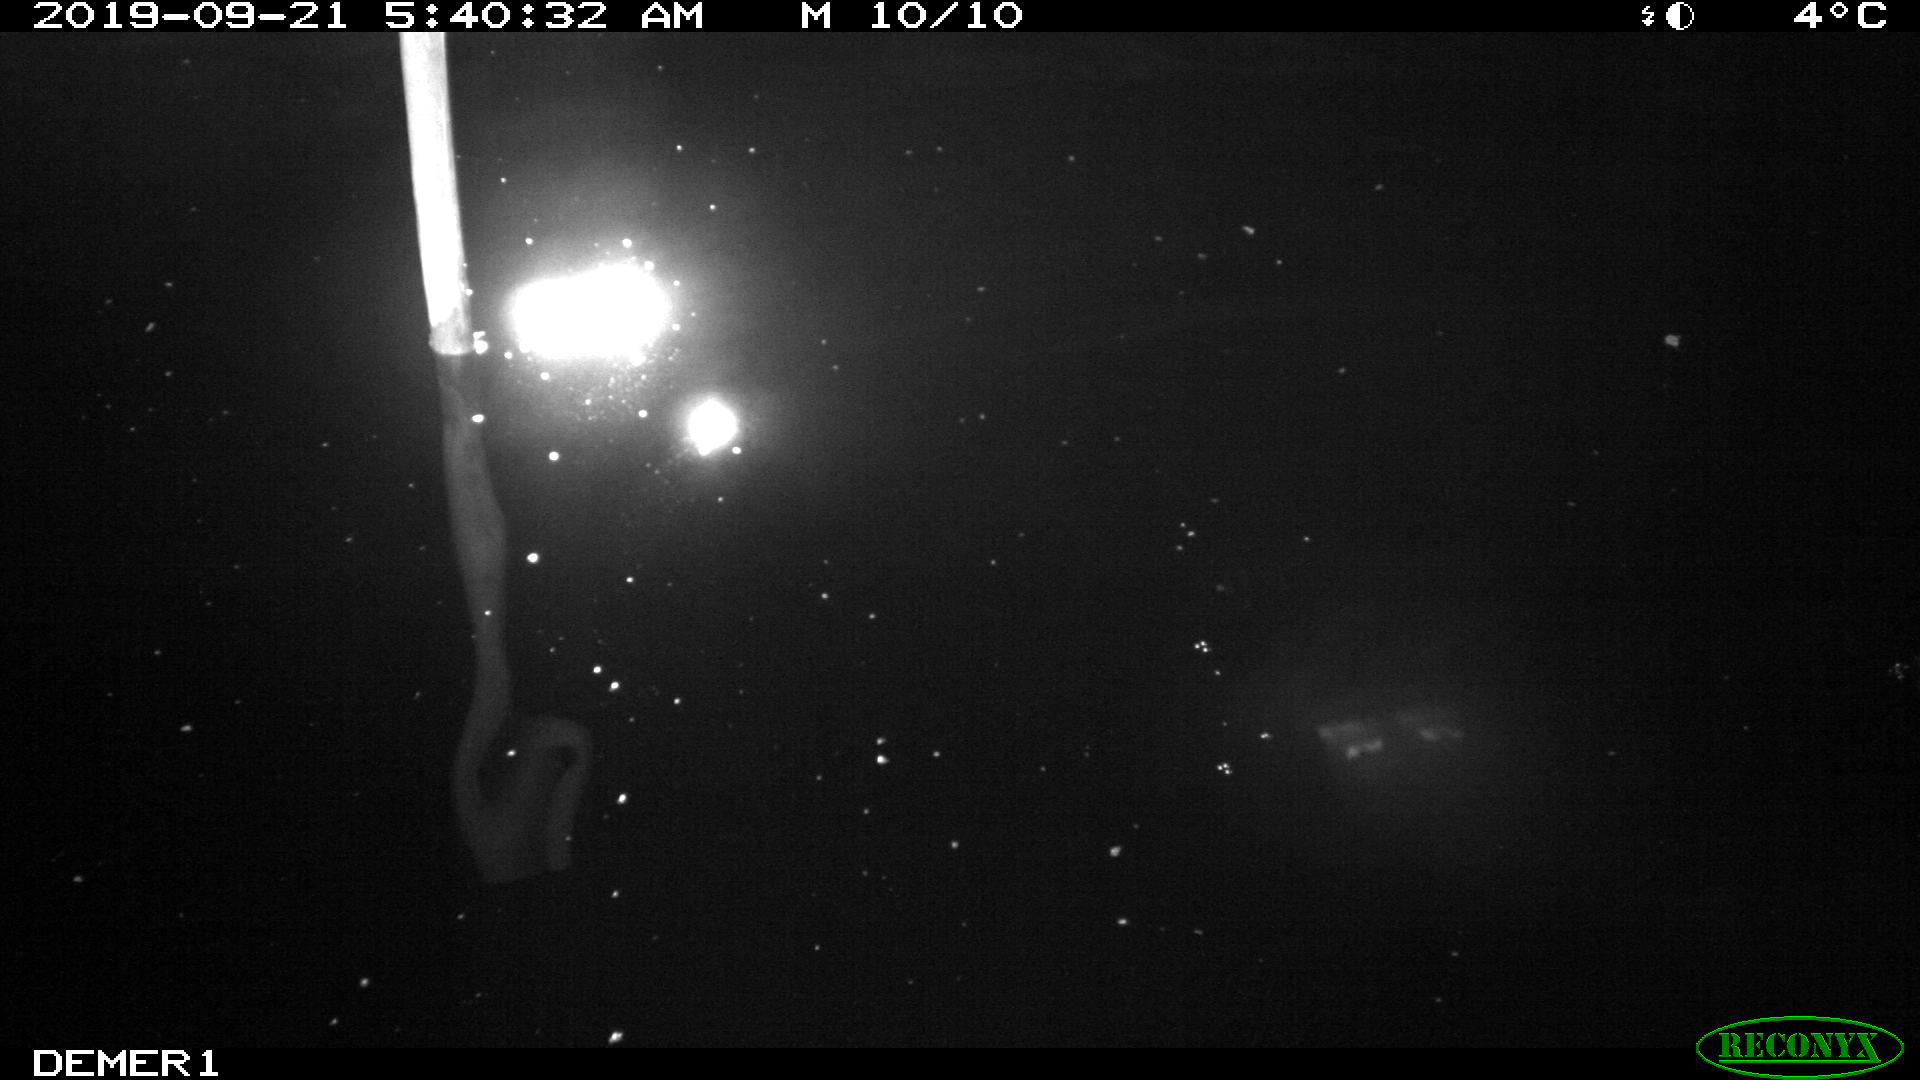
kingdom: Animalia
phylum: Chordata
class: Aves
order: Anseriformes
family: Anatidae
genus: Anas
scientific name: Anas platyrhynchos
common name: Mallard
